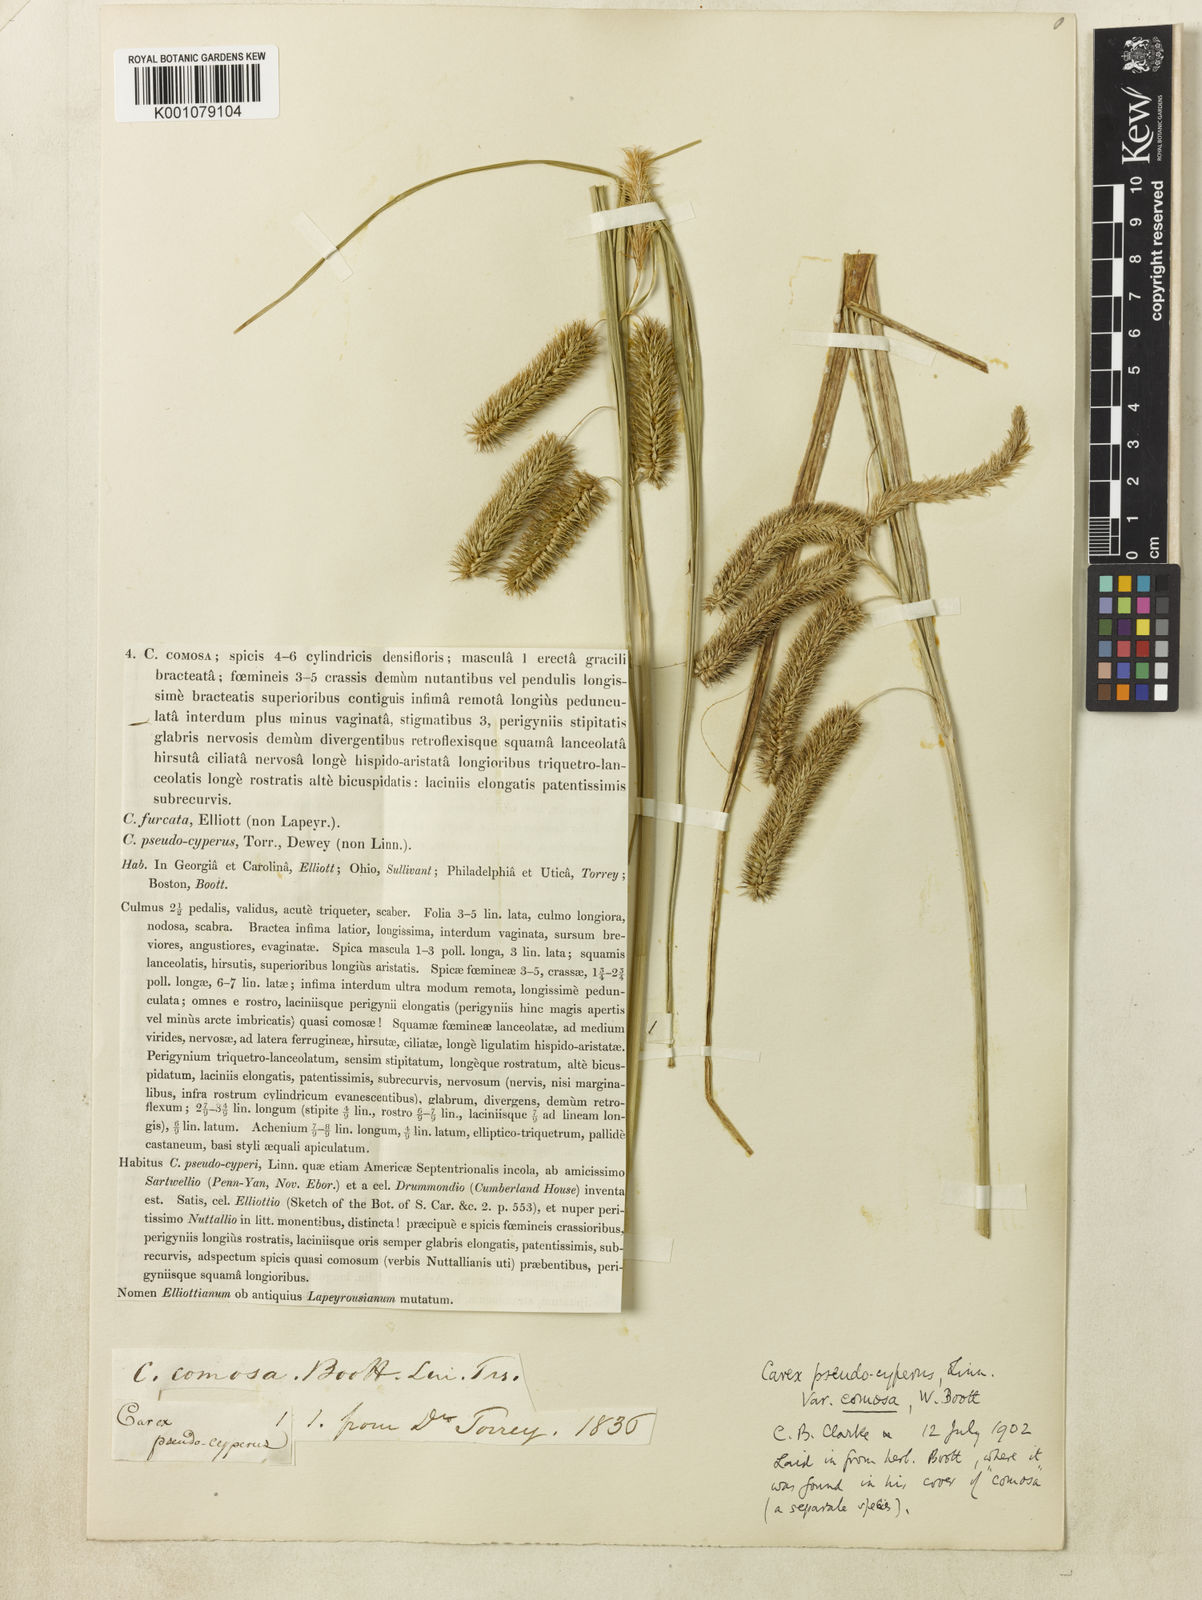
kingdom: Plantae
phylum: Tracheophyta
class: Liliopsida
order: Poales
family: Cyperaceae
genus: Carex
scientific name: Carex comosa
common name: Bristly sedge
